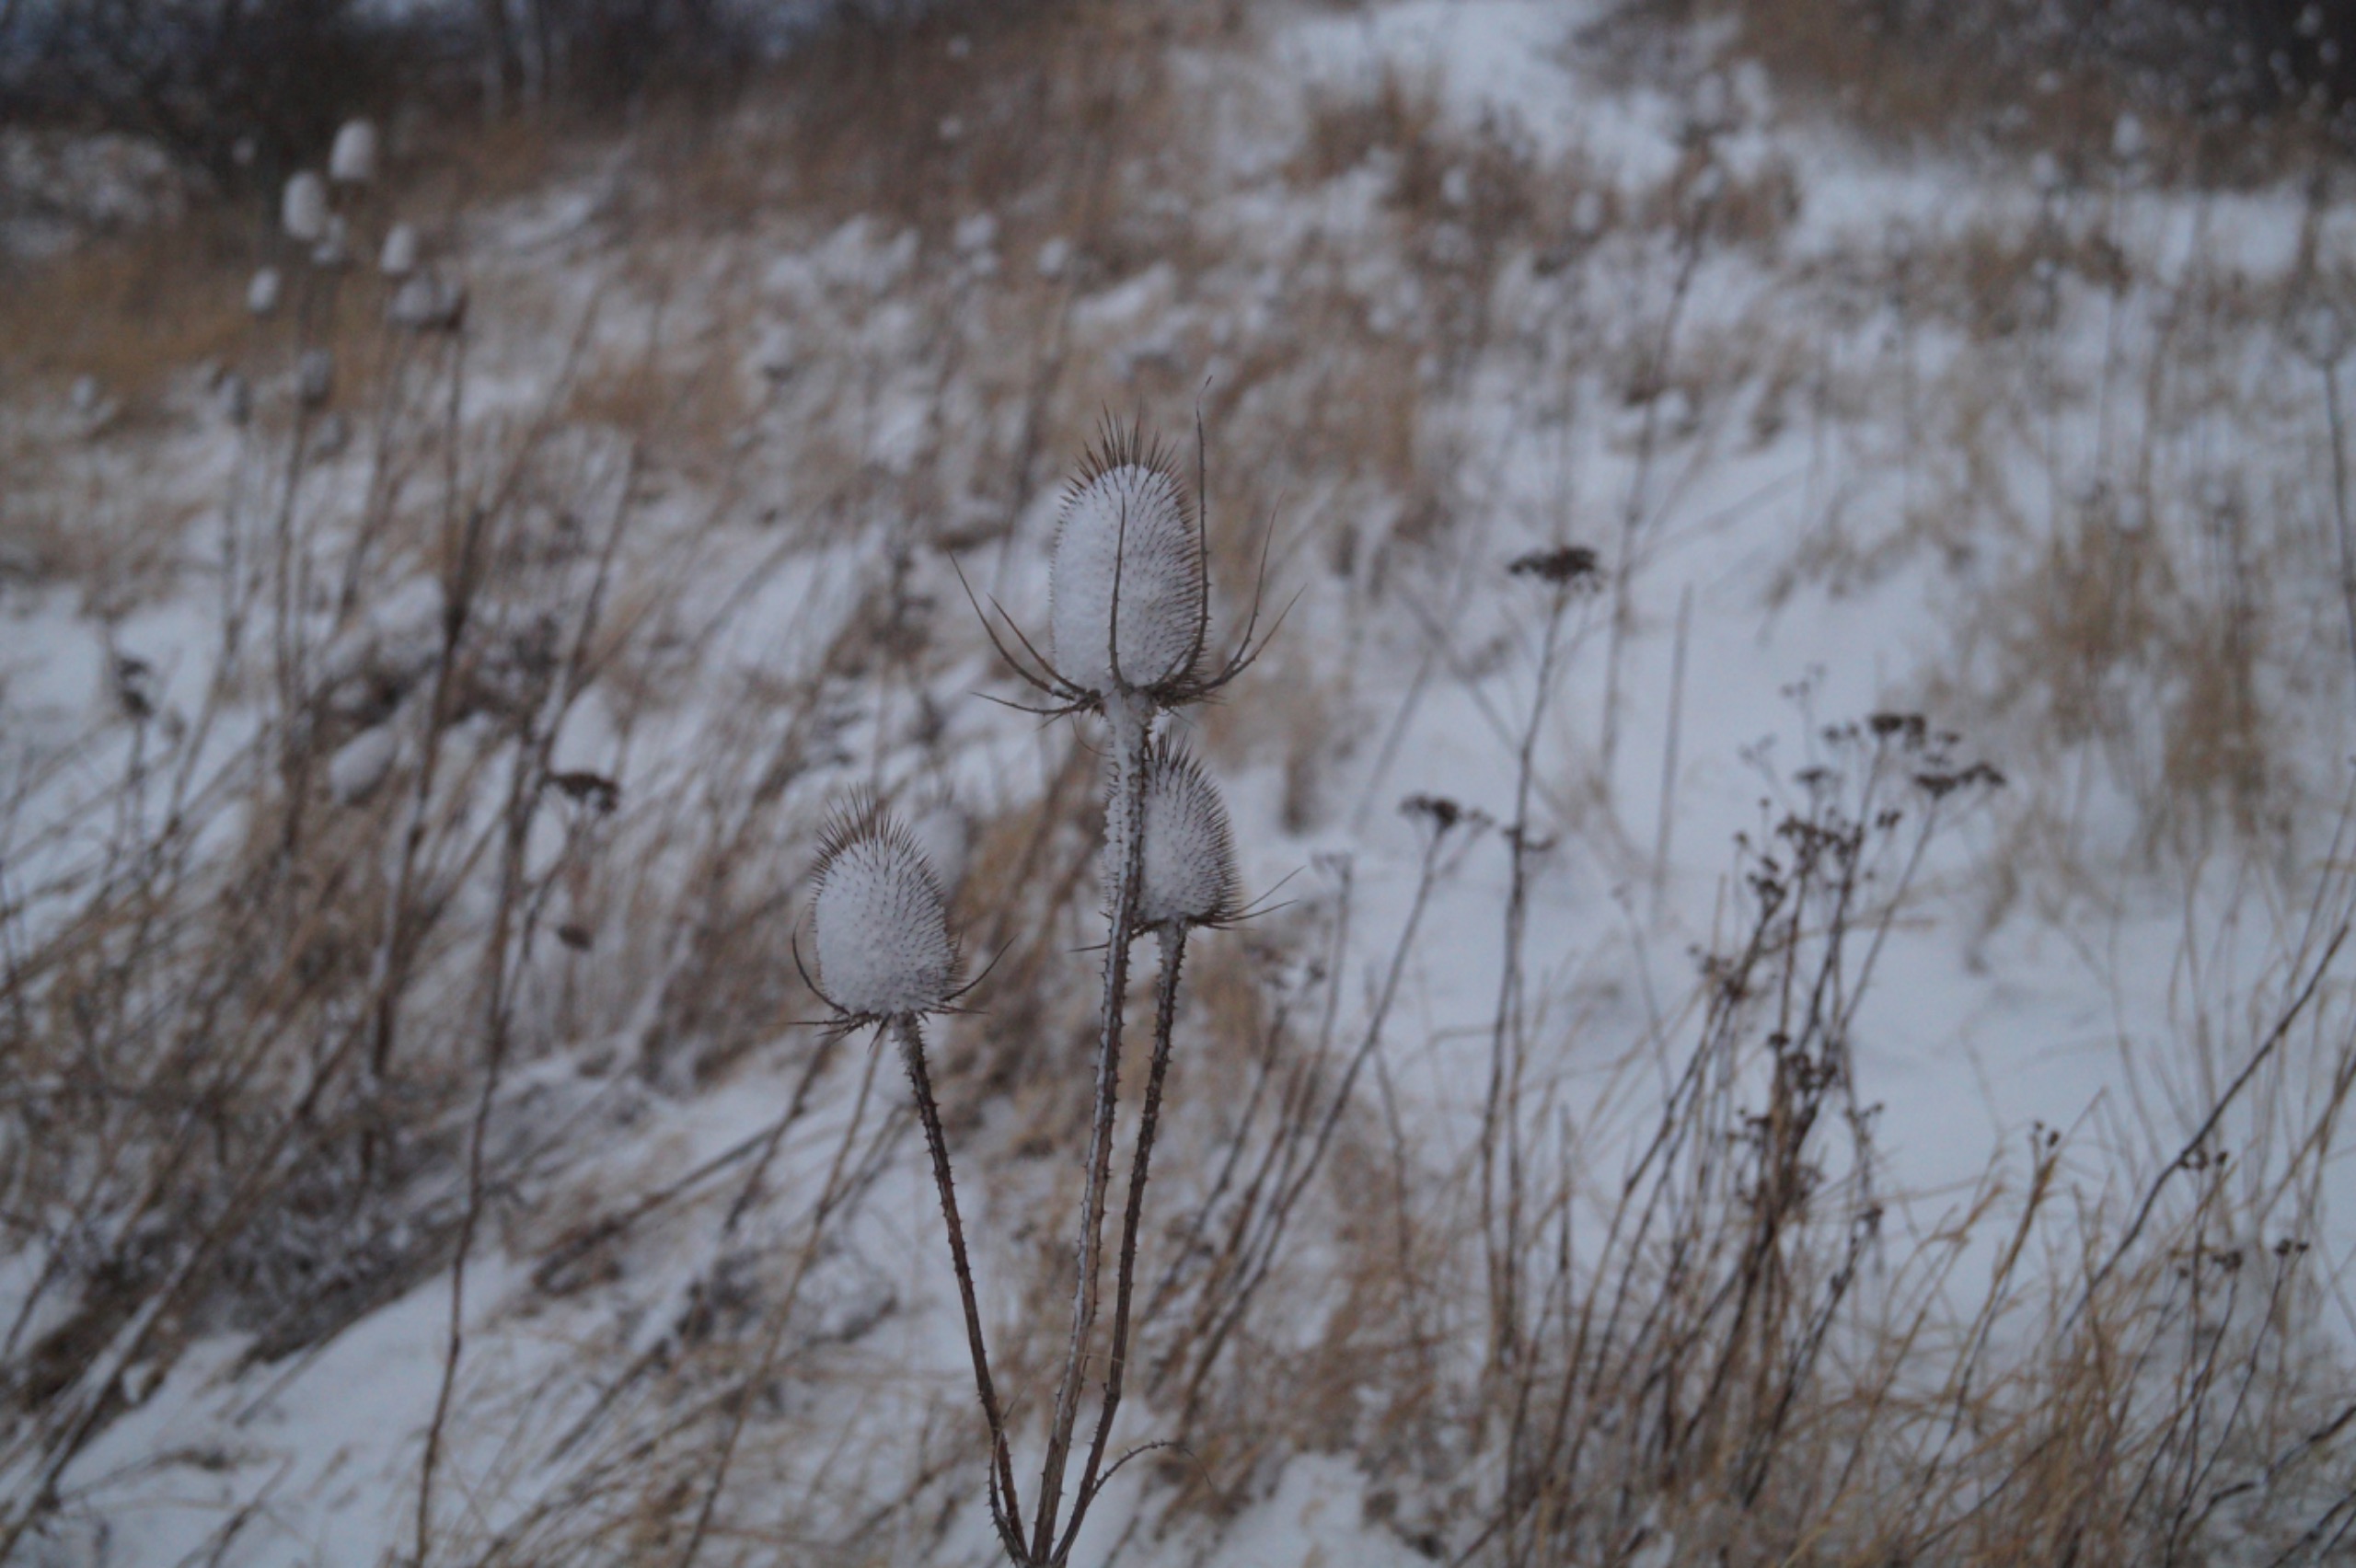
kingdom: Plantae
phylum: Tracheophyta
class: Magnoliopsida
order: Dipsacales
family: Caprifoliaceae
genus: Dipsacus
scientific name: Dipsacus fullonum
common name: Gærde-kartebolle
